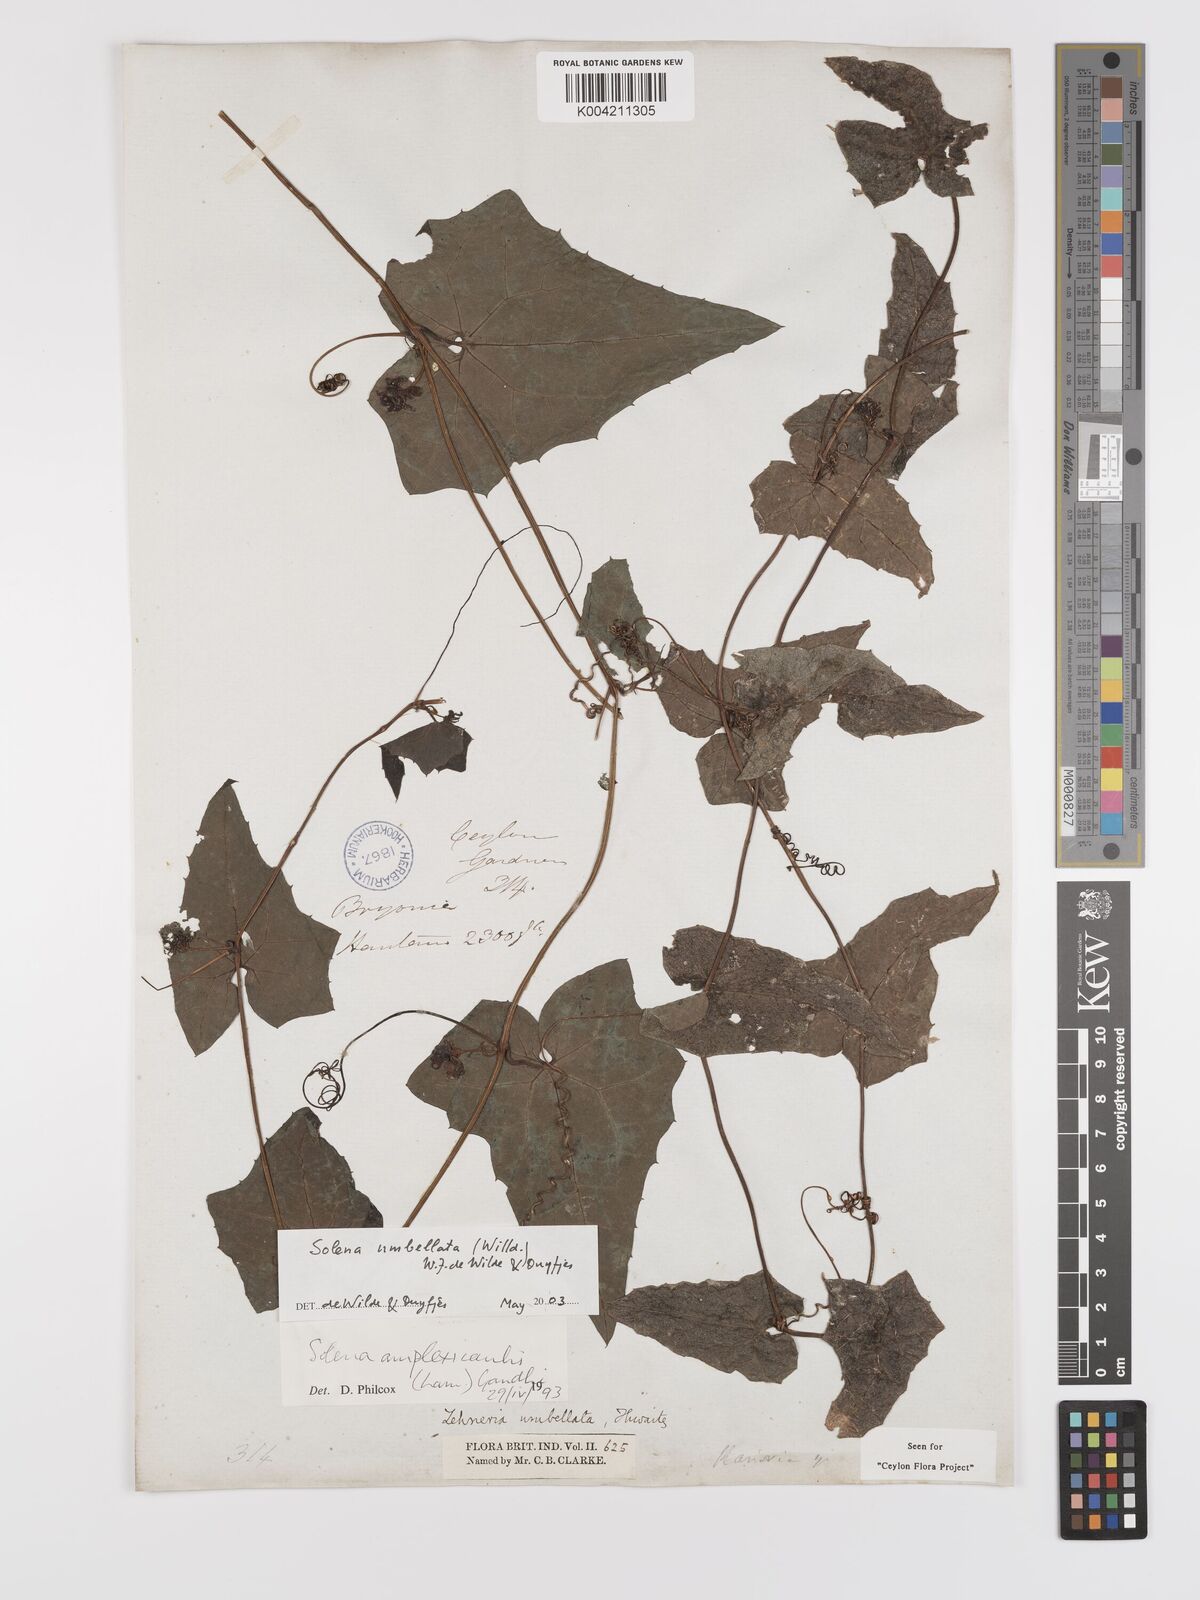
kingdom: Plantae
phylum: Tracheophyta
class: Magnoliopsida
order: Cucurbitales
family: Cucurbitaceae
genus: Solena
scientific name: Solena umbellata
